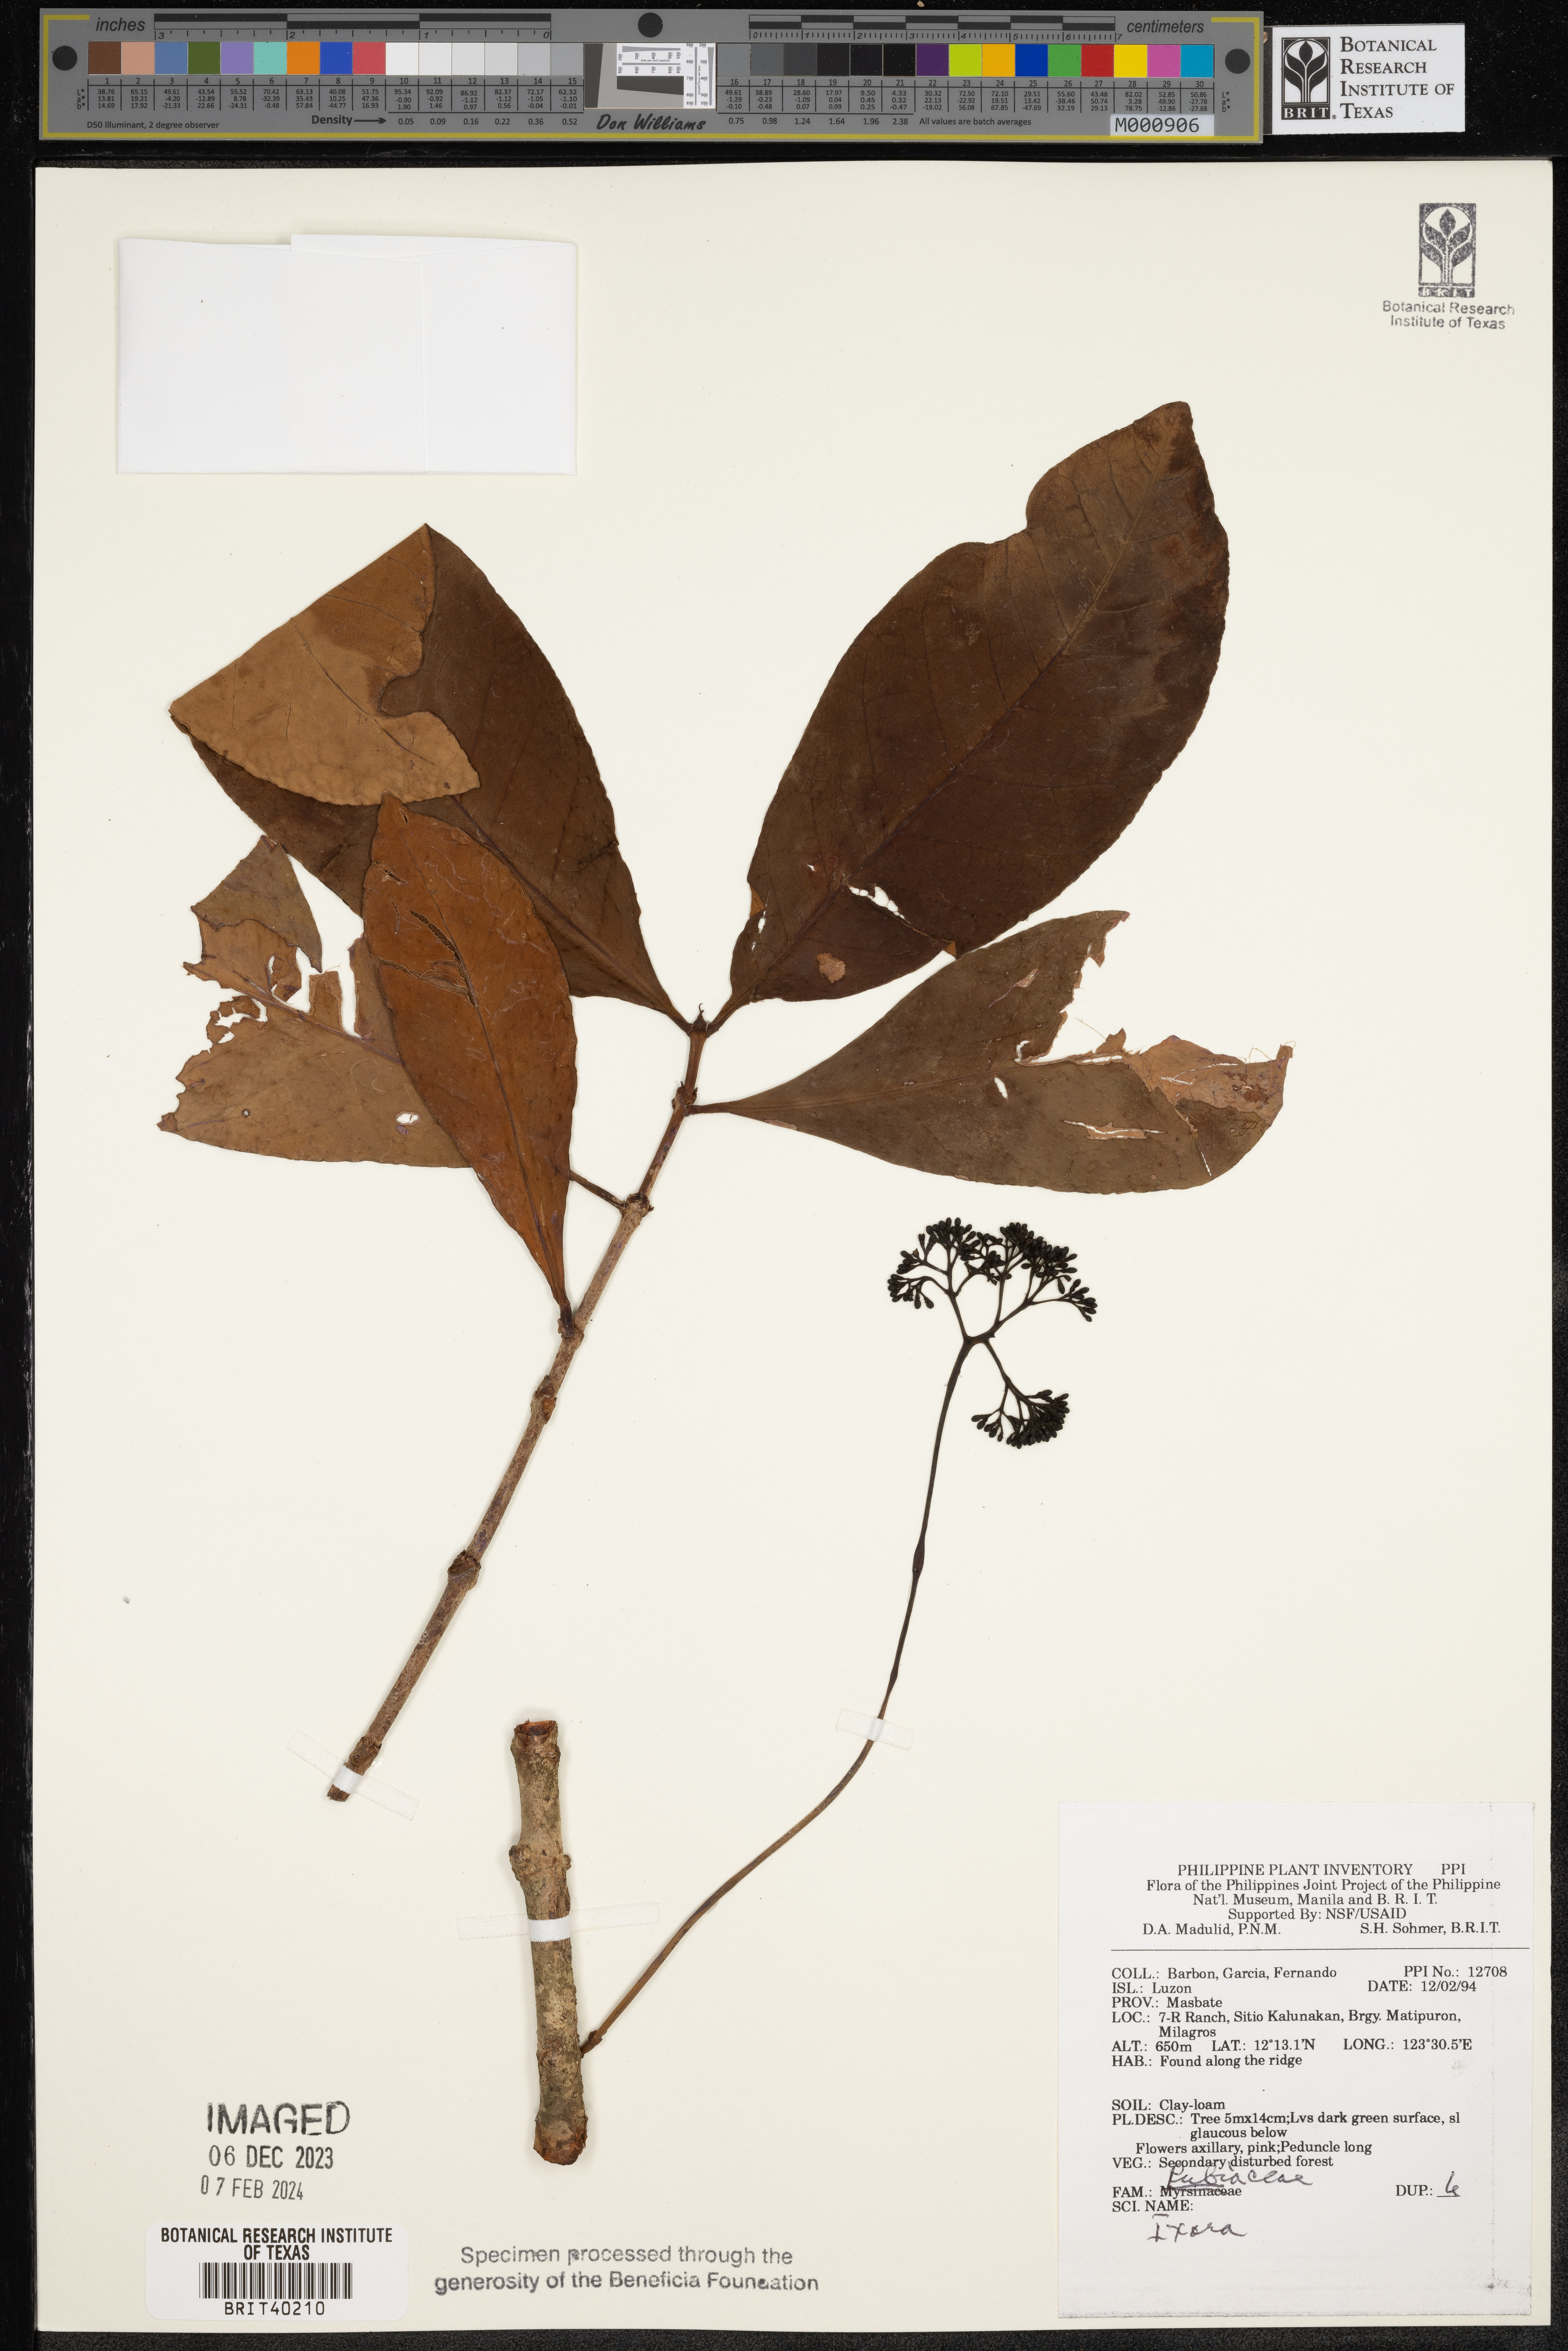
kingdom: Plantae
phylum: Tracheophyta
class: Magnoliopsida
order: Gentianales
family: Rubiaceae
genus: Ixora
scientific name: Ixora
